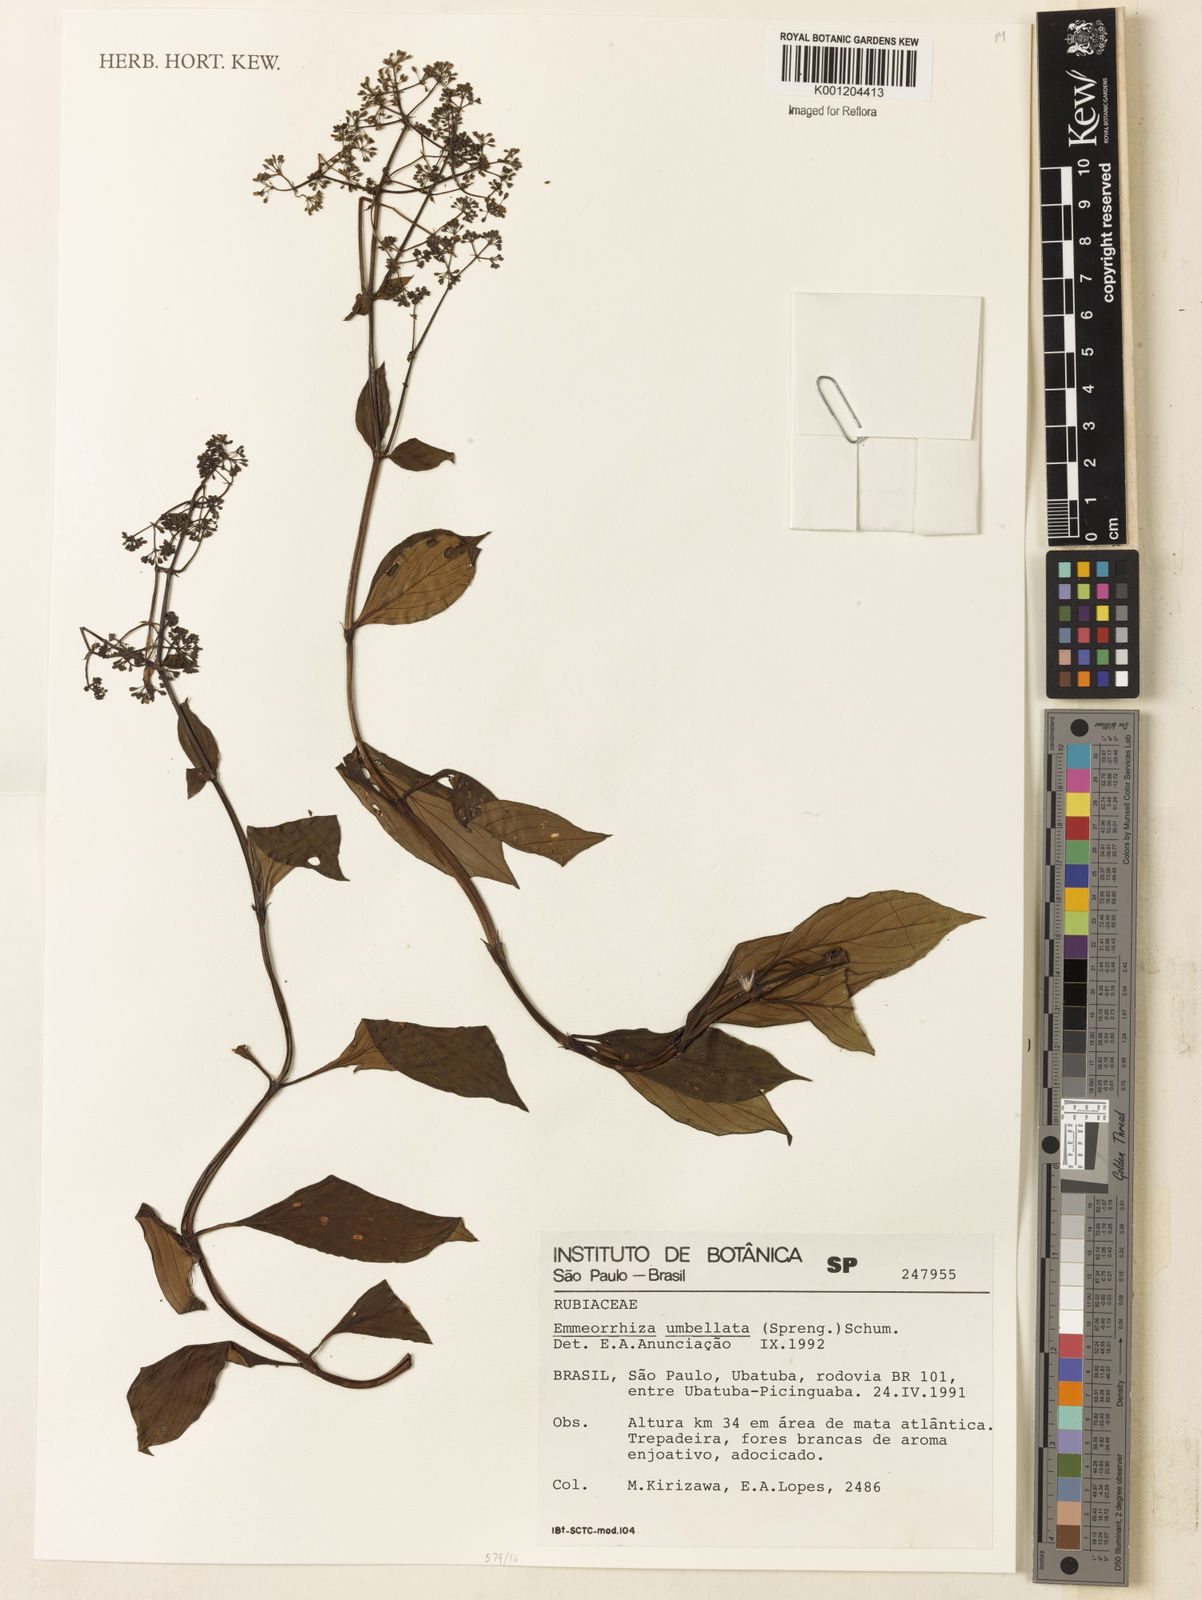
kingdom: Plantae
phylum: Tracheophyta
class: Magnoliopsida
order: Gentianales
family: Rubiaceae
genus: Emmeorhiza
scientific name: Emmeorhiza umbellata
